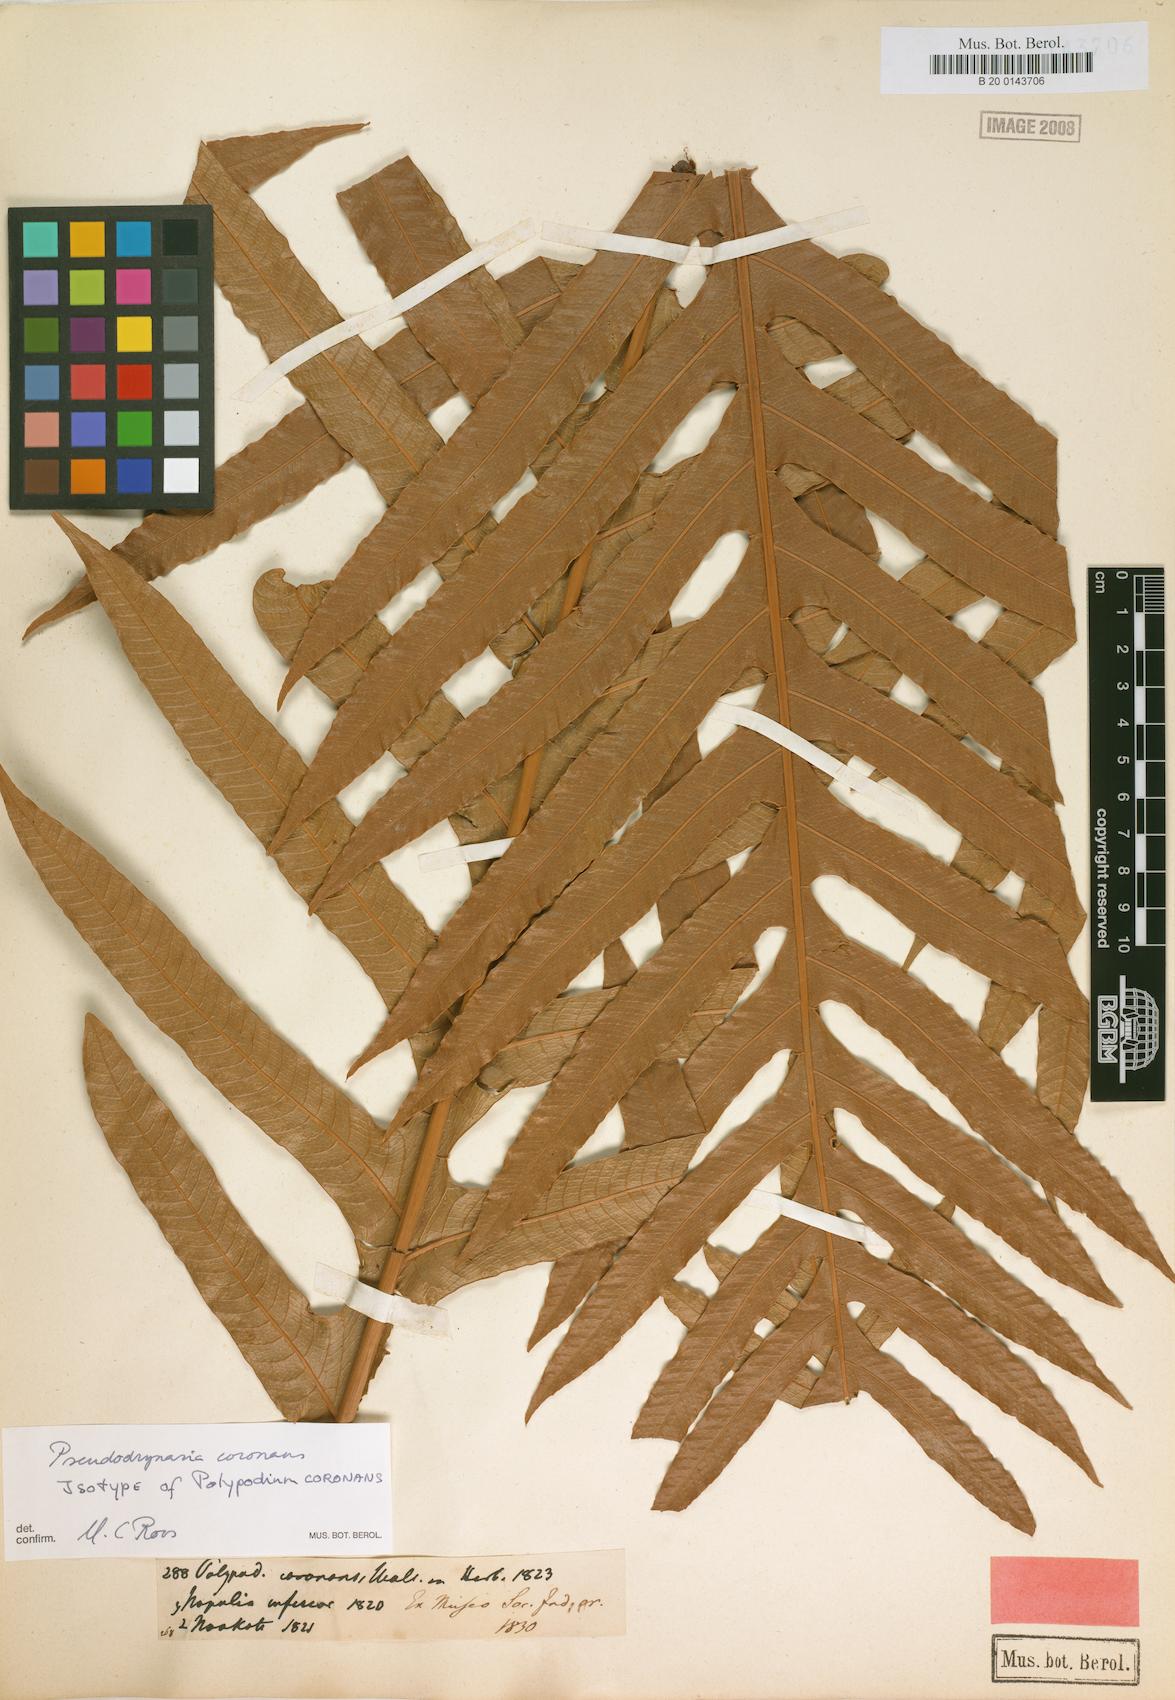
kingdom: Plantae
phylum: Tracheophyta
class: Polypodiopsida
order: Polypodiales
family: Polypodiaceae
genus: Drynaria
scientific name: Drynaria coronans
